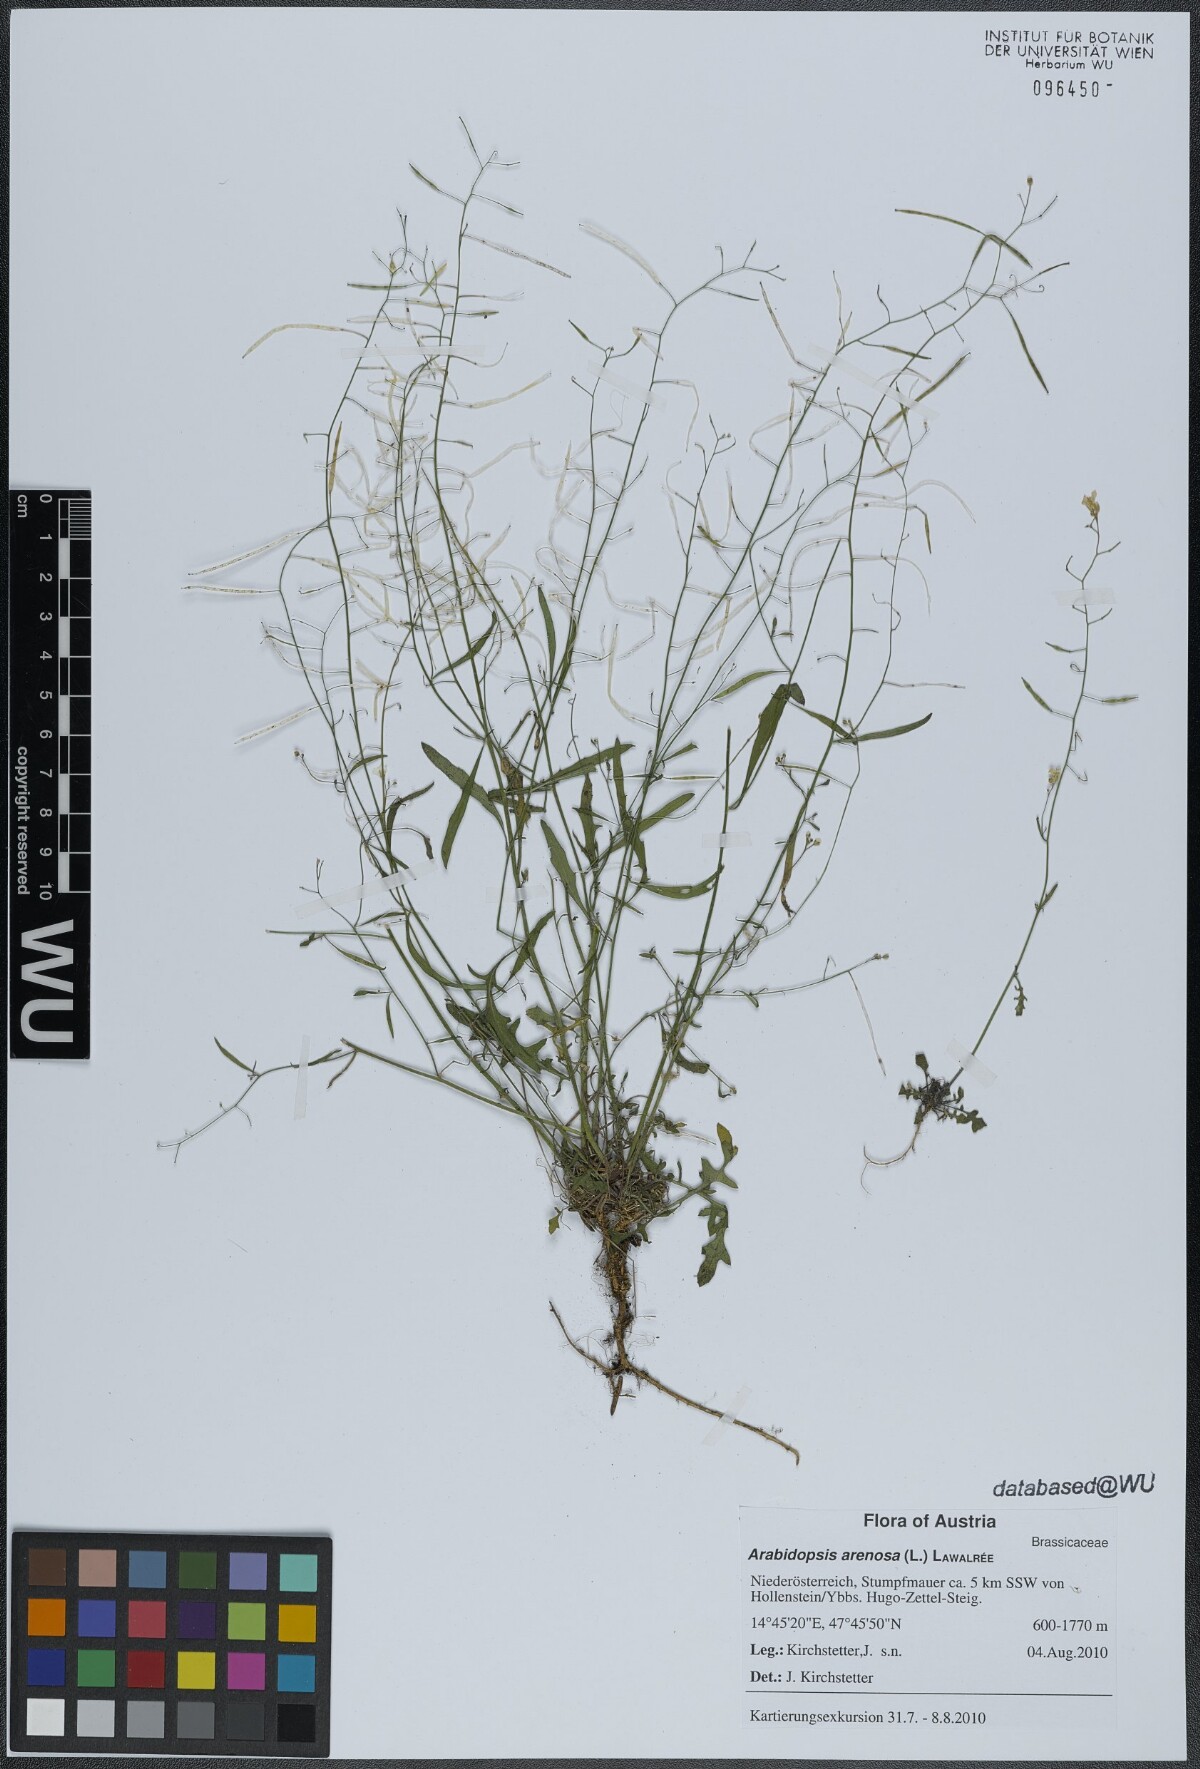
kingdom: Plantae
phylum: Tracheophyta
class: Magnoliopsida
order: Brassicales
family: Brassicaceae
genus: Arabidopsis
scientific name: Arabidopsis arenosa
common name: Sand rock-cress
